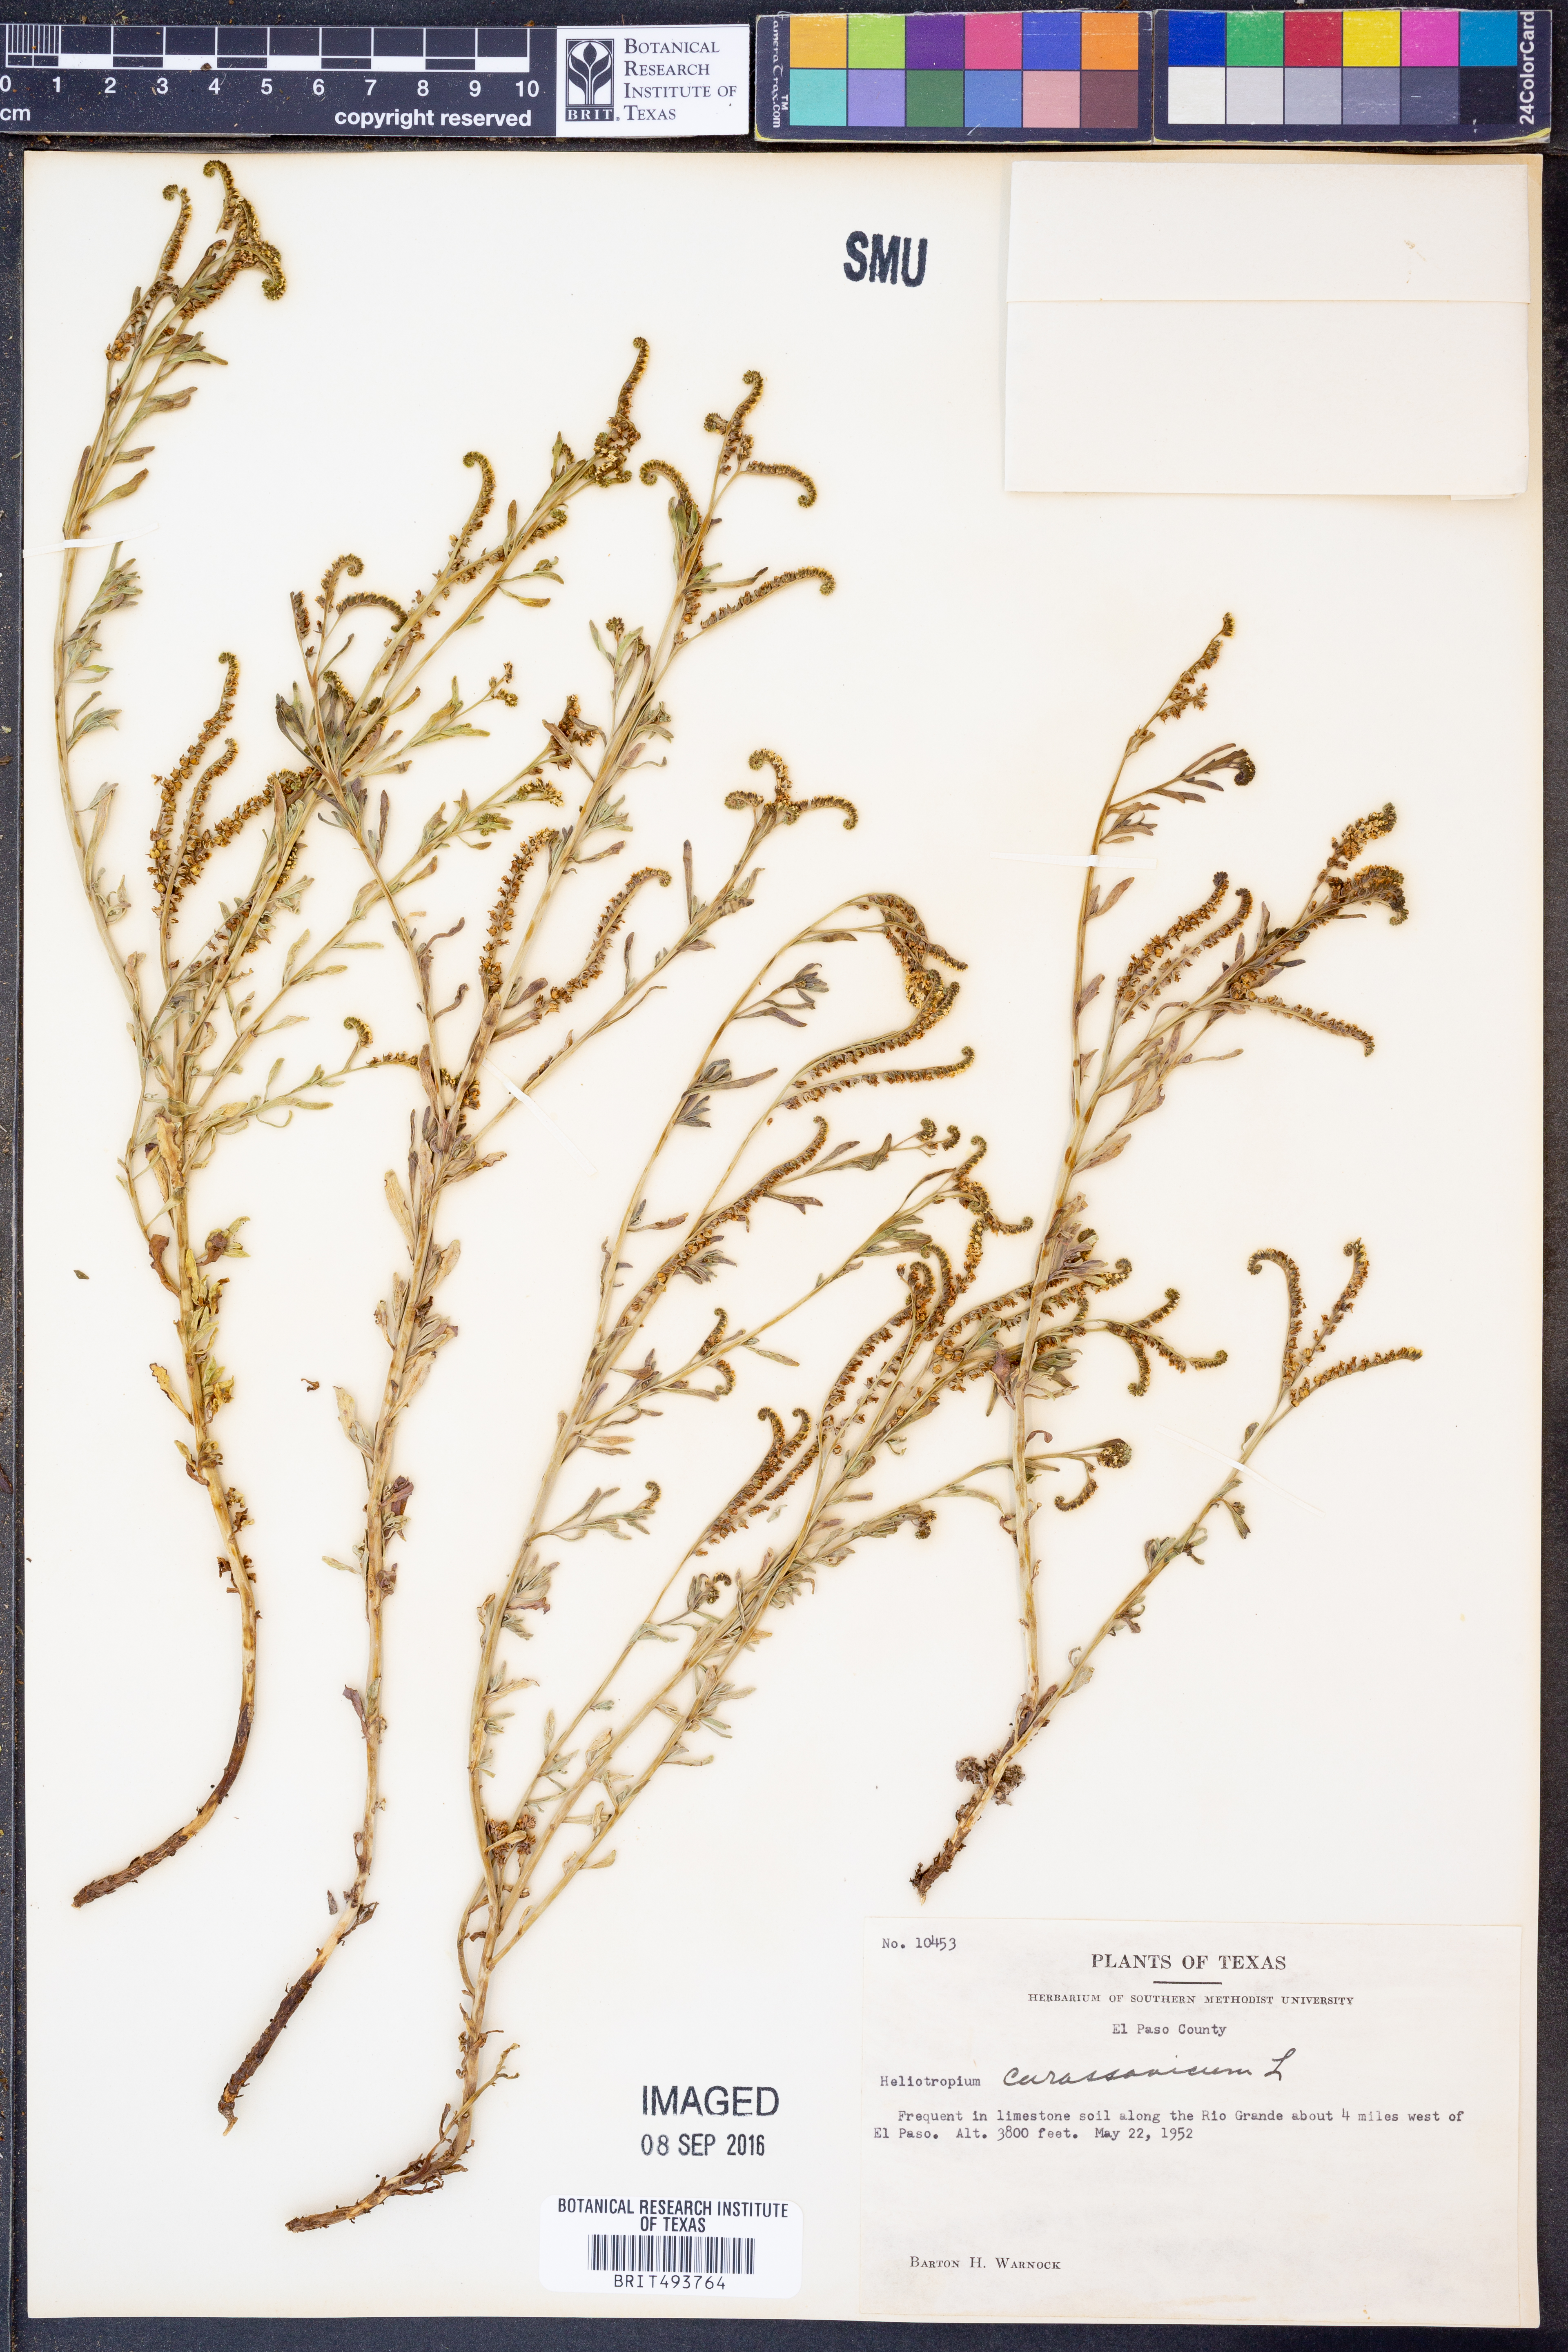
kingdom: Plantae
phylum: Tracheophyta
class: Magnoliopsida
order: Boraginales
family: Heliotropiaceae
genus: Heliotropium
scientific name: Heliotropium curassavicum
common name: Seaside heliotrope
